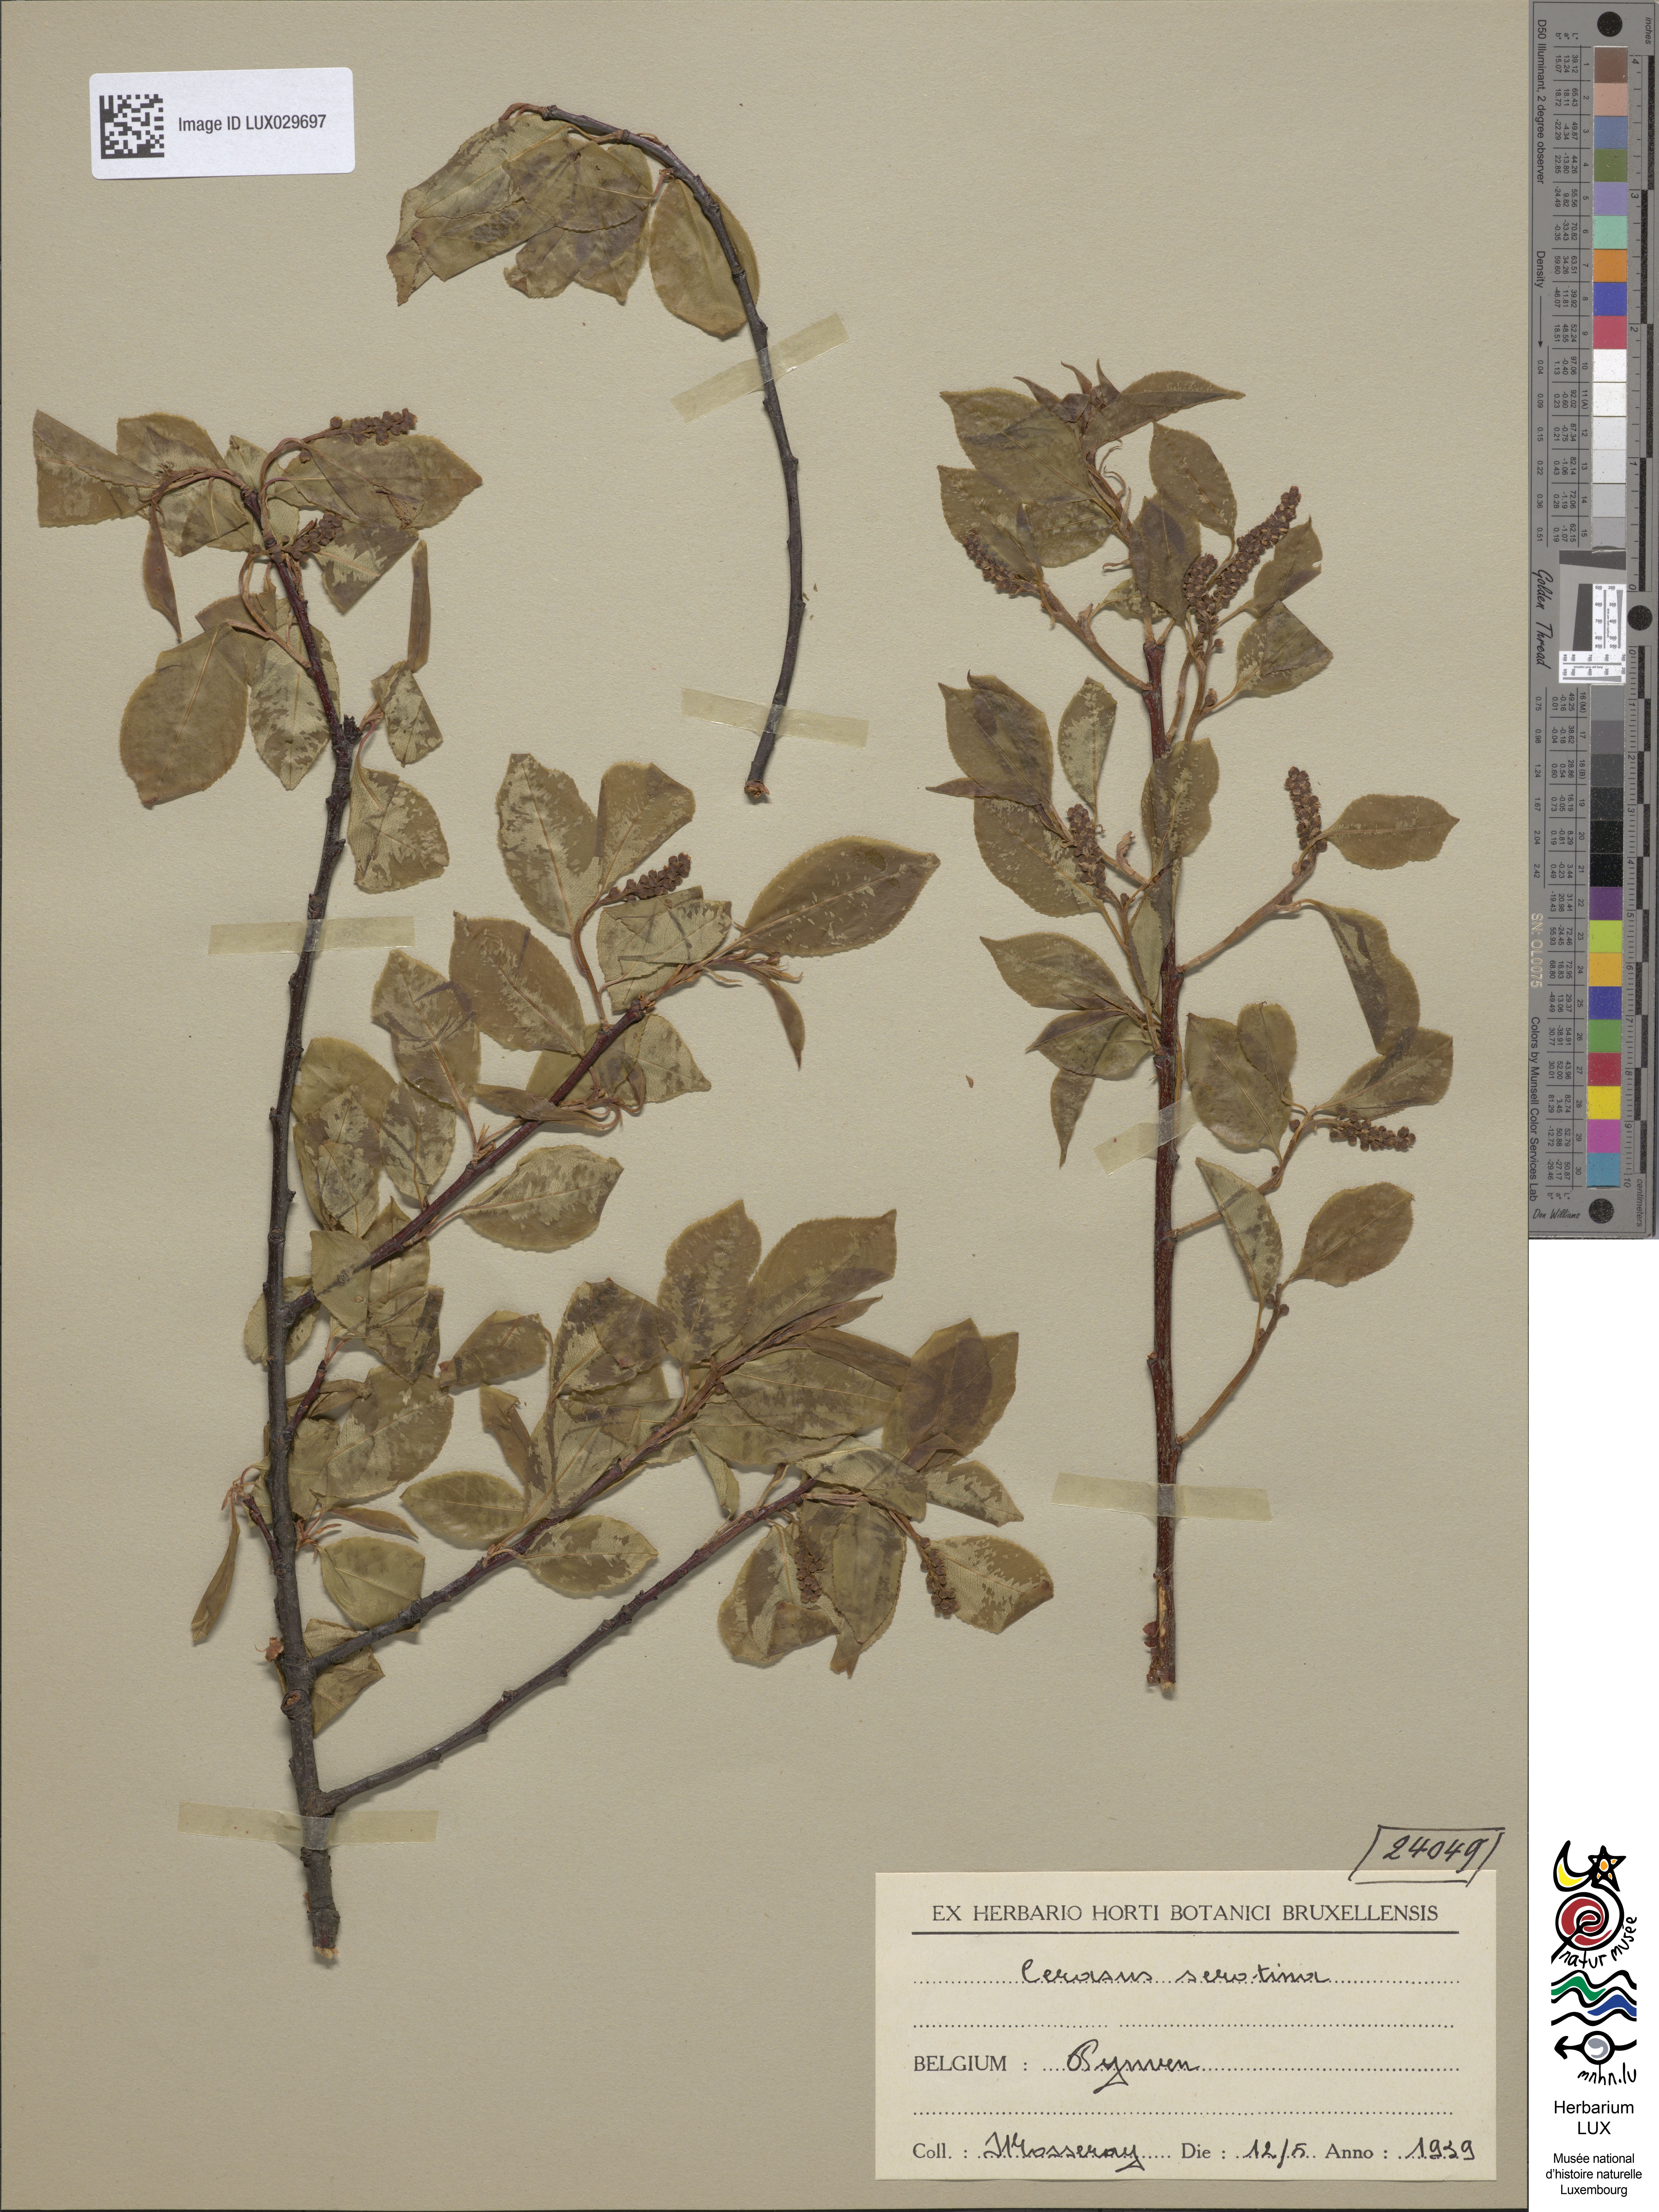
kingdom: Plantae
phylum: Tracheophyta
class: Magnoliopsida
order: Rosales
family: Rosaceae
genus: Prunus
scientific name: Prunus serotina
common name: Black cherry
